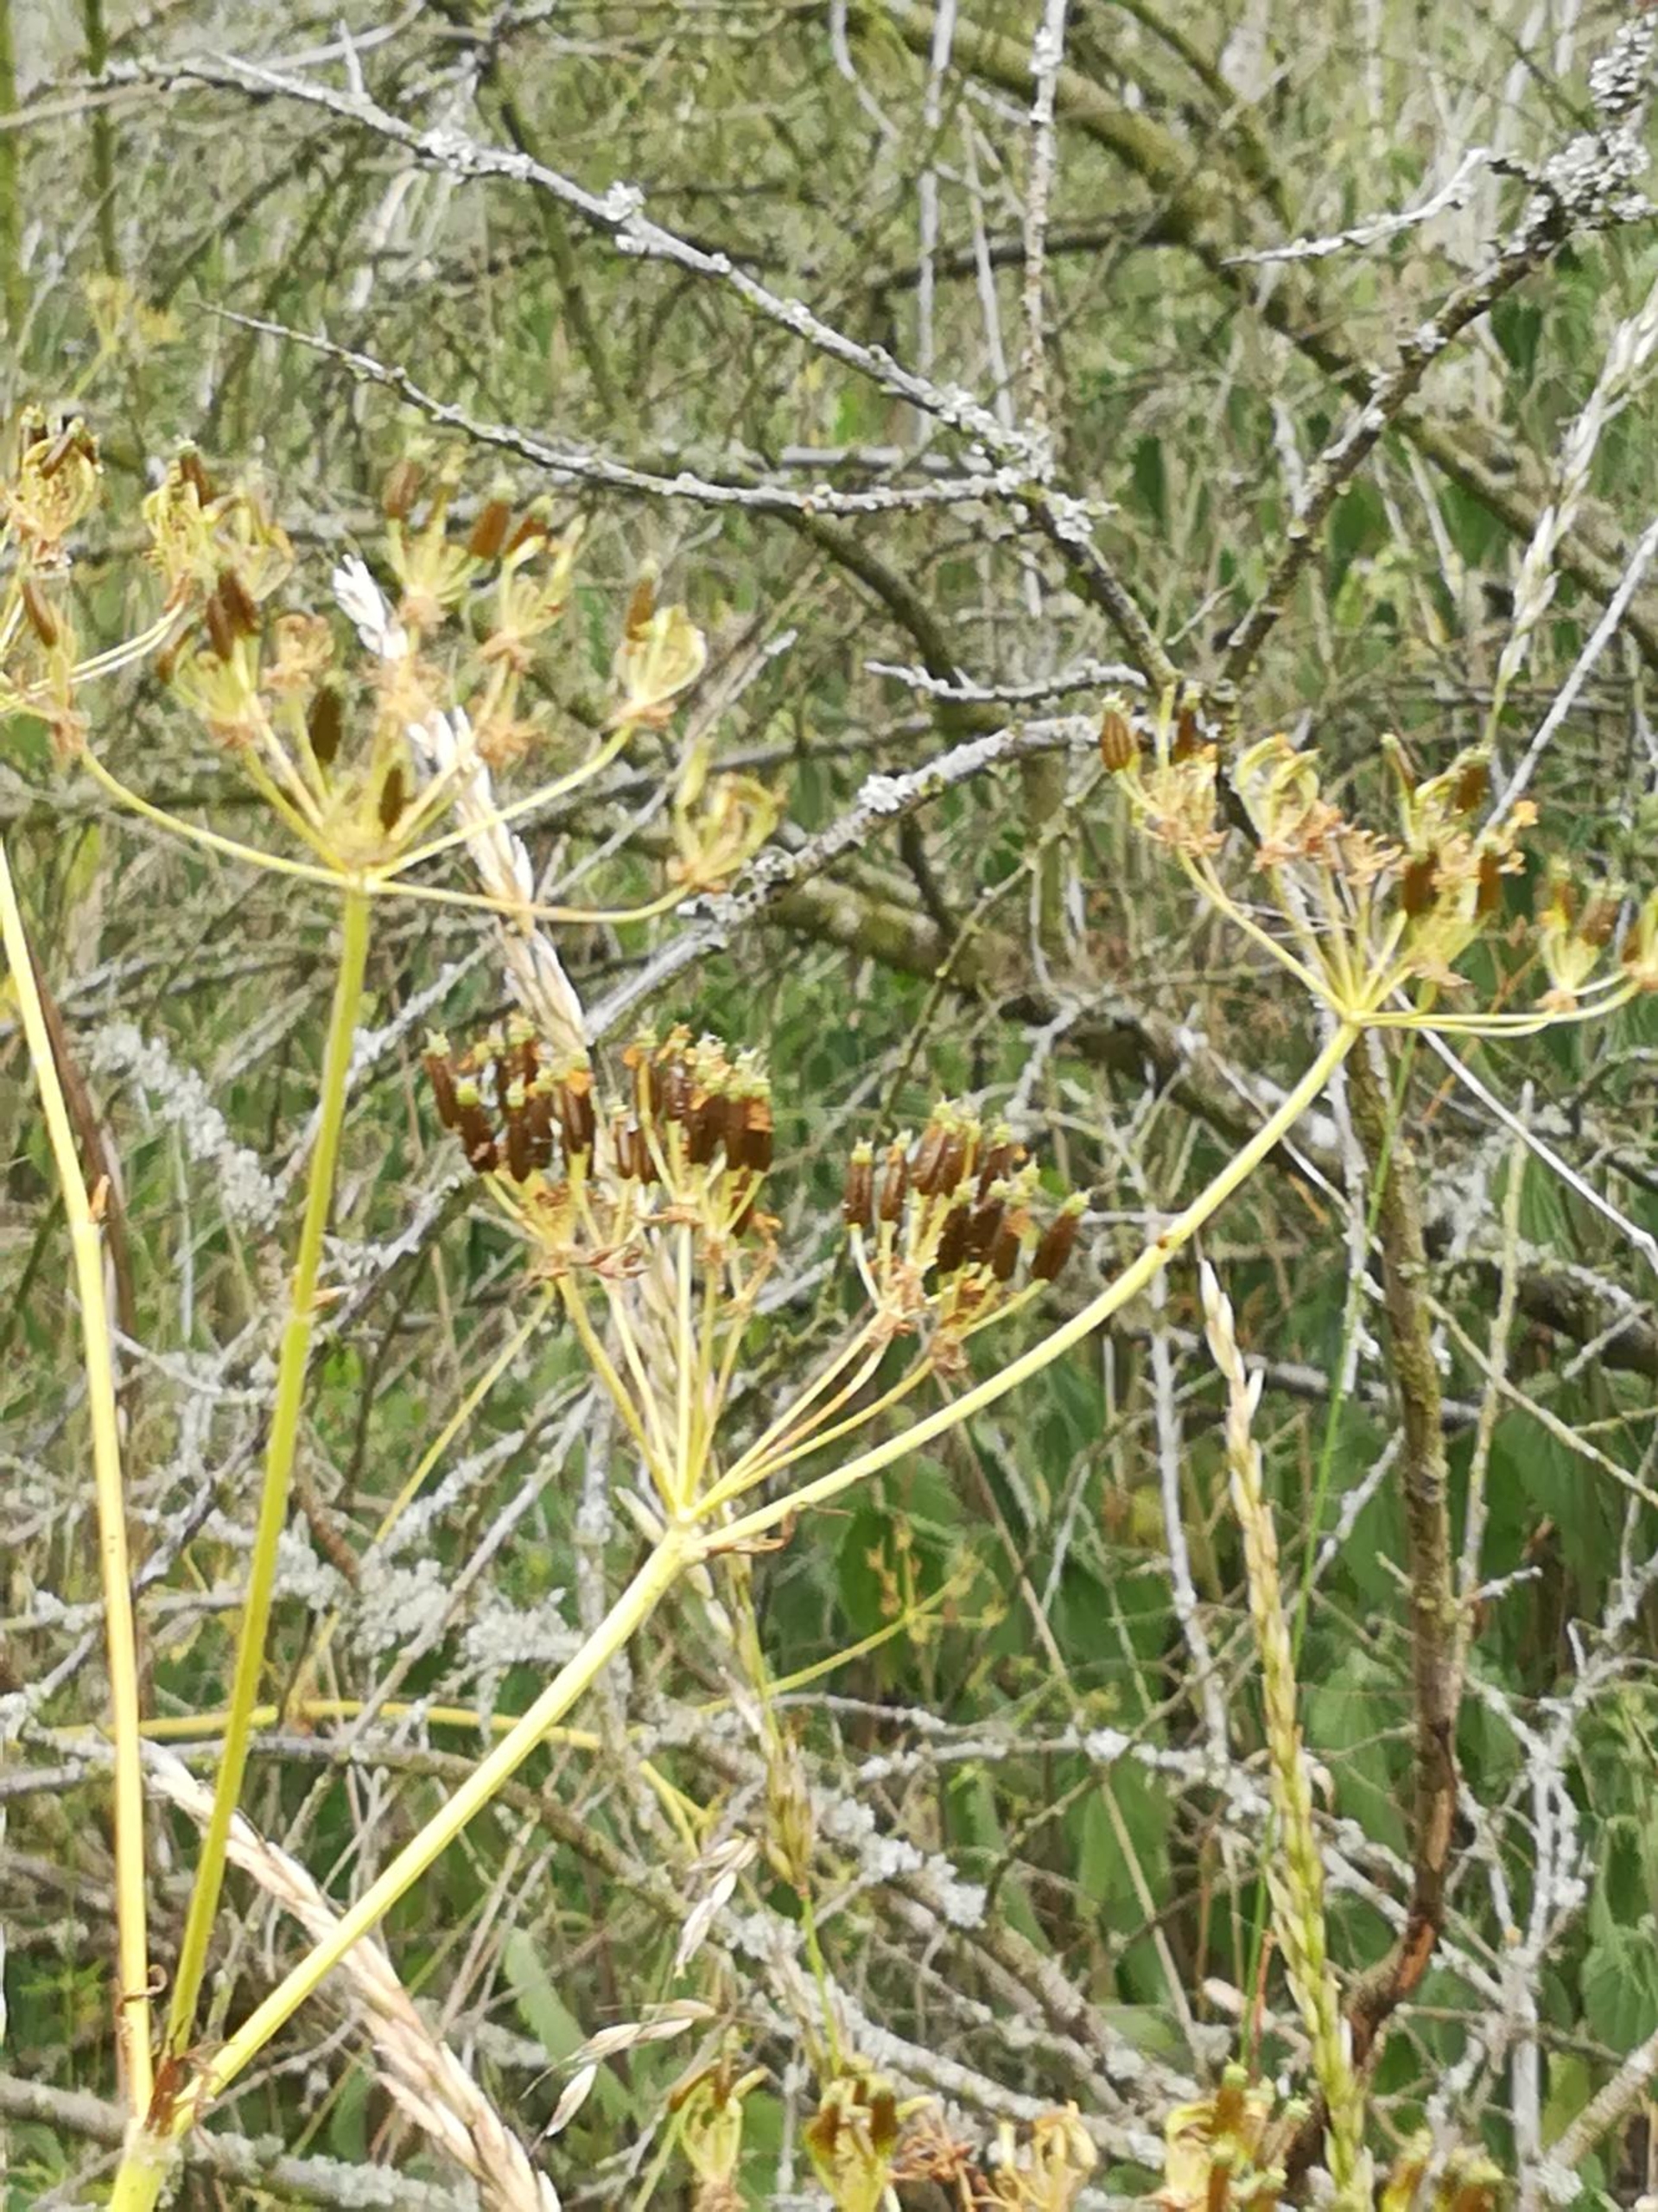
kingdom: Plantae
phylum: Tracheophyta
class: Magnoliopsida
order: Apiales
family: Apiaceae
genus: Anthriscus
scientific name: Anthriscus sylvestris
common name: Vild kørvel
